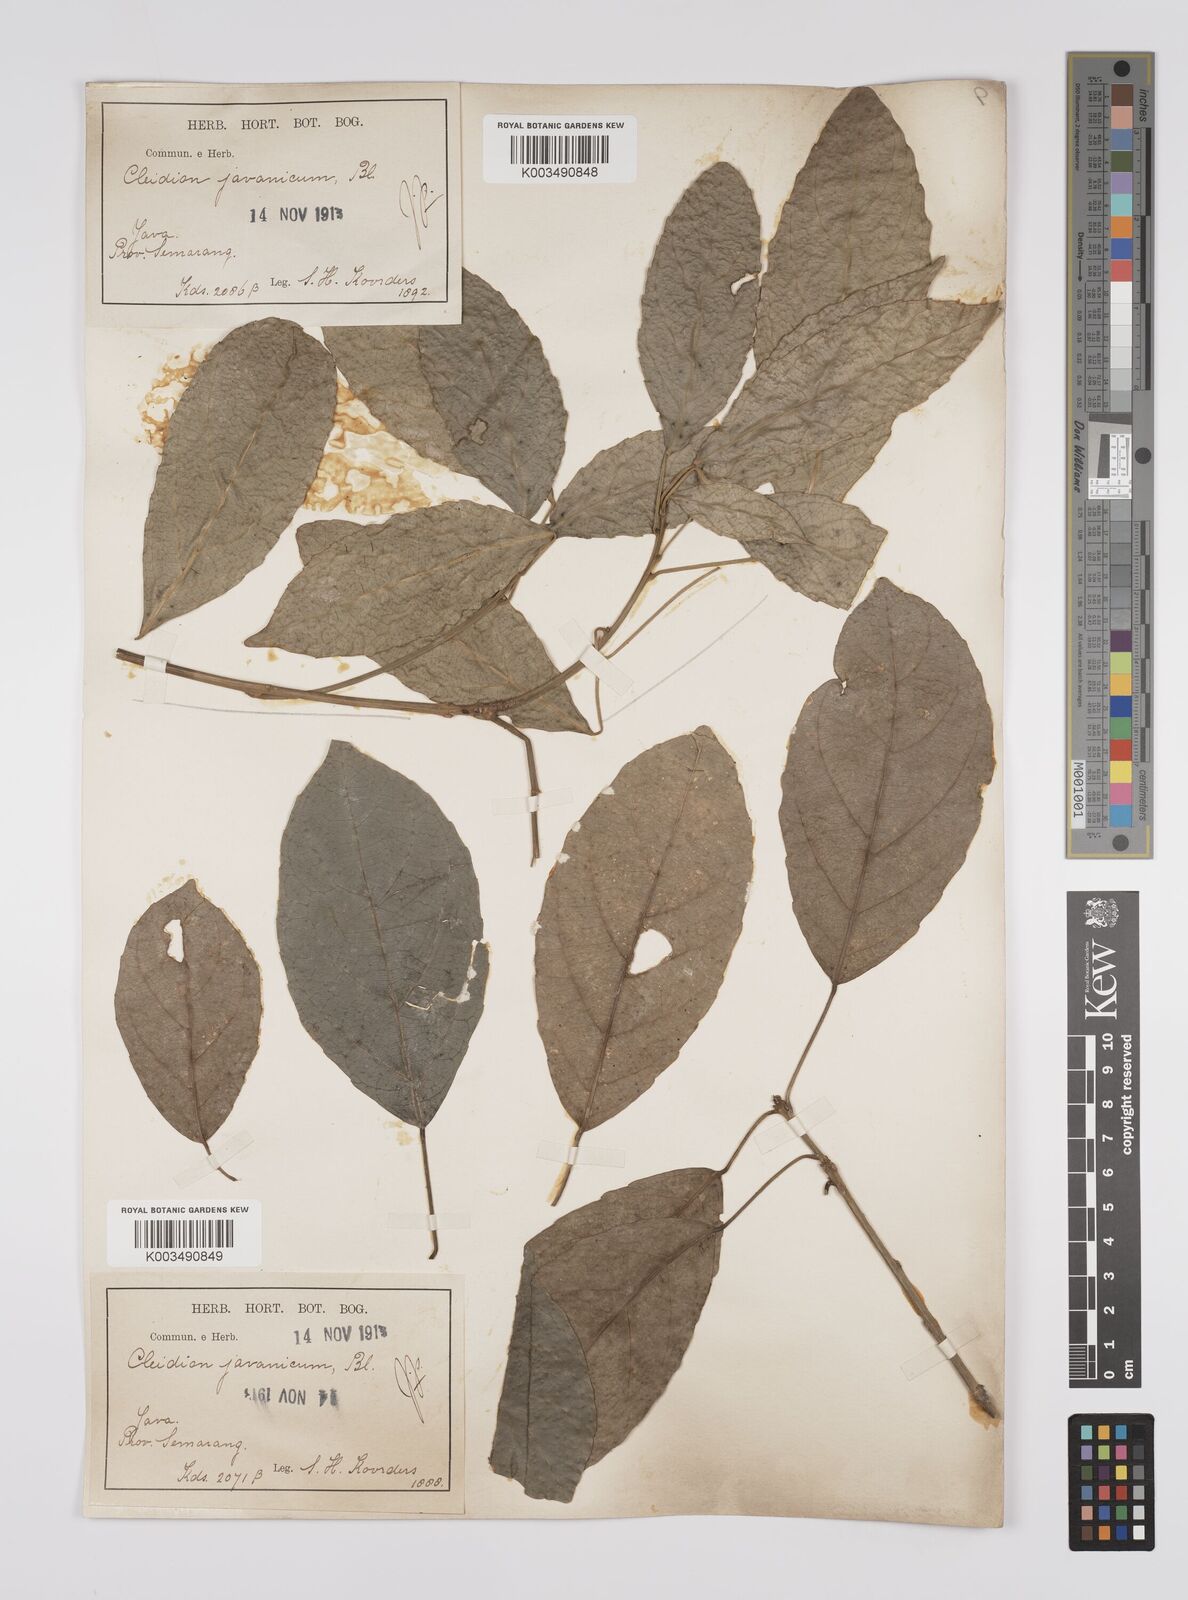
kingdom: Plantae
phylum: Tracheophyta
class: Magnoliopsida
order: Malpighiales
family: Euphorbiaceae
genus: Acalypha
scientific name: Acalypha spiciflora
